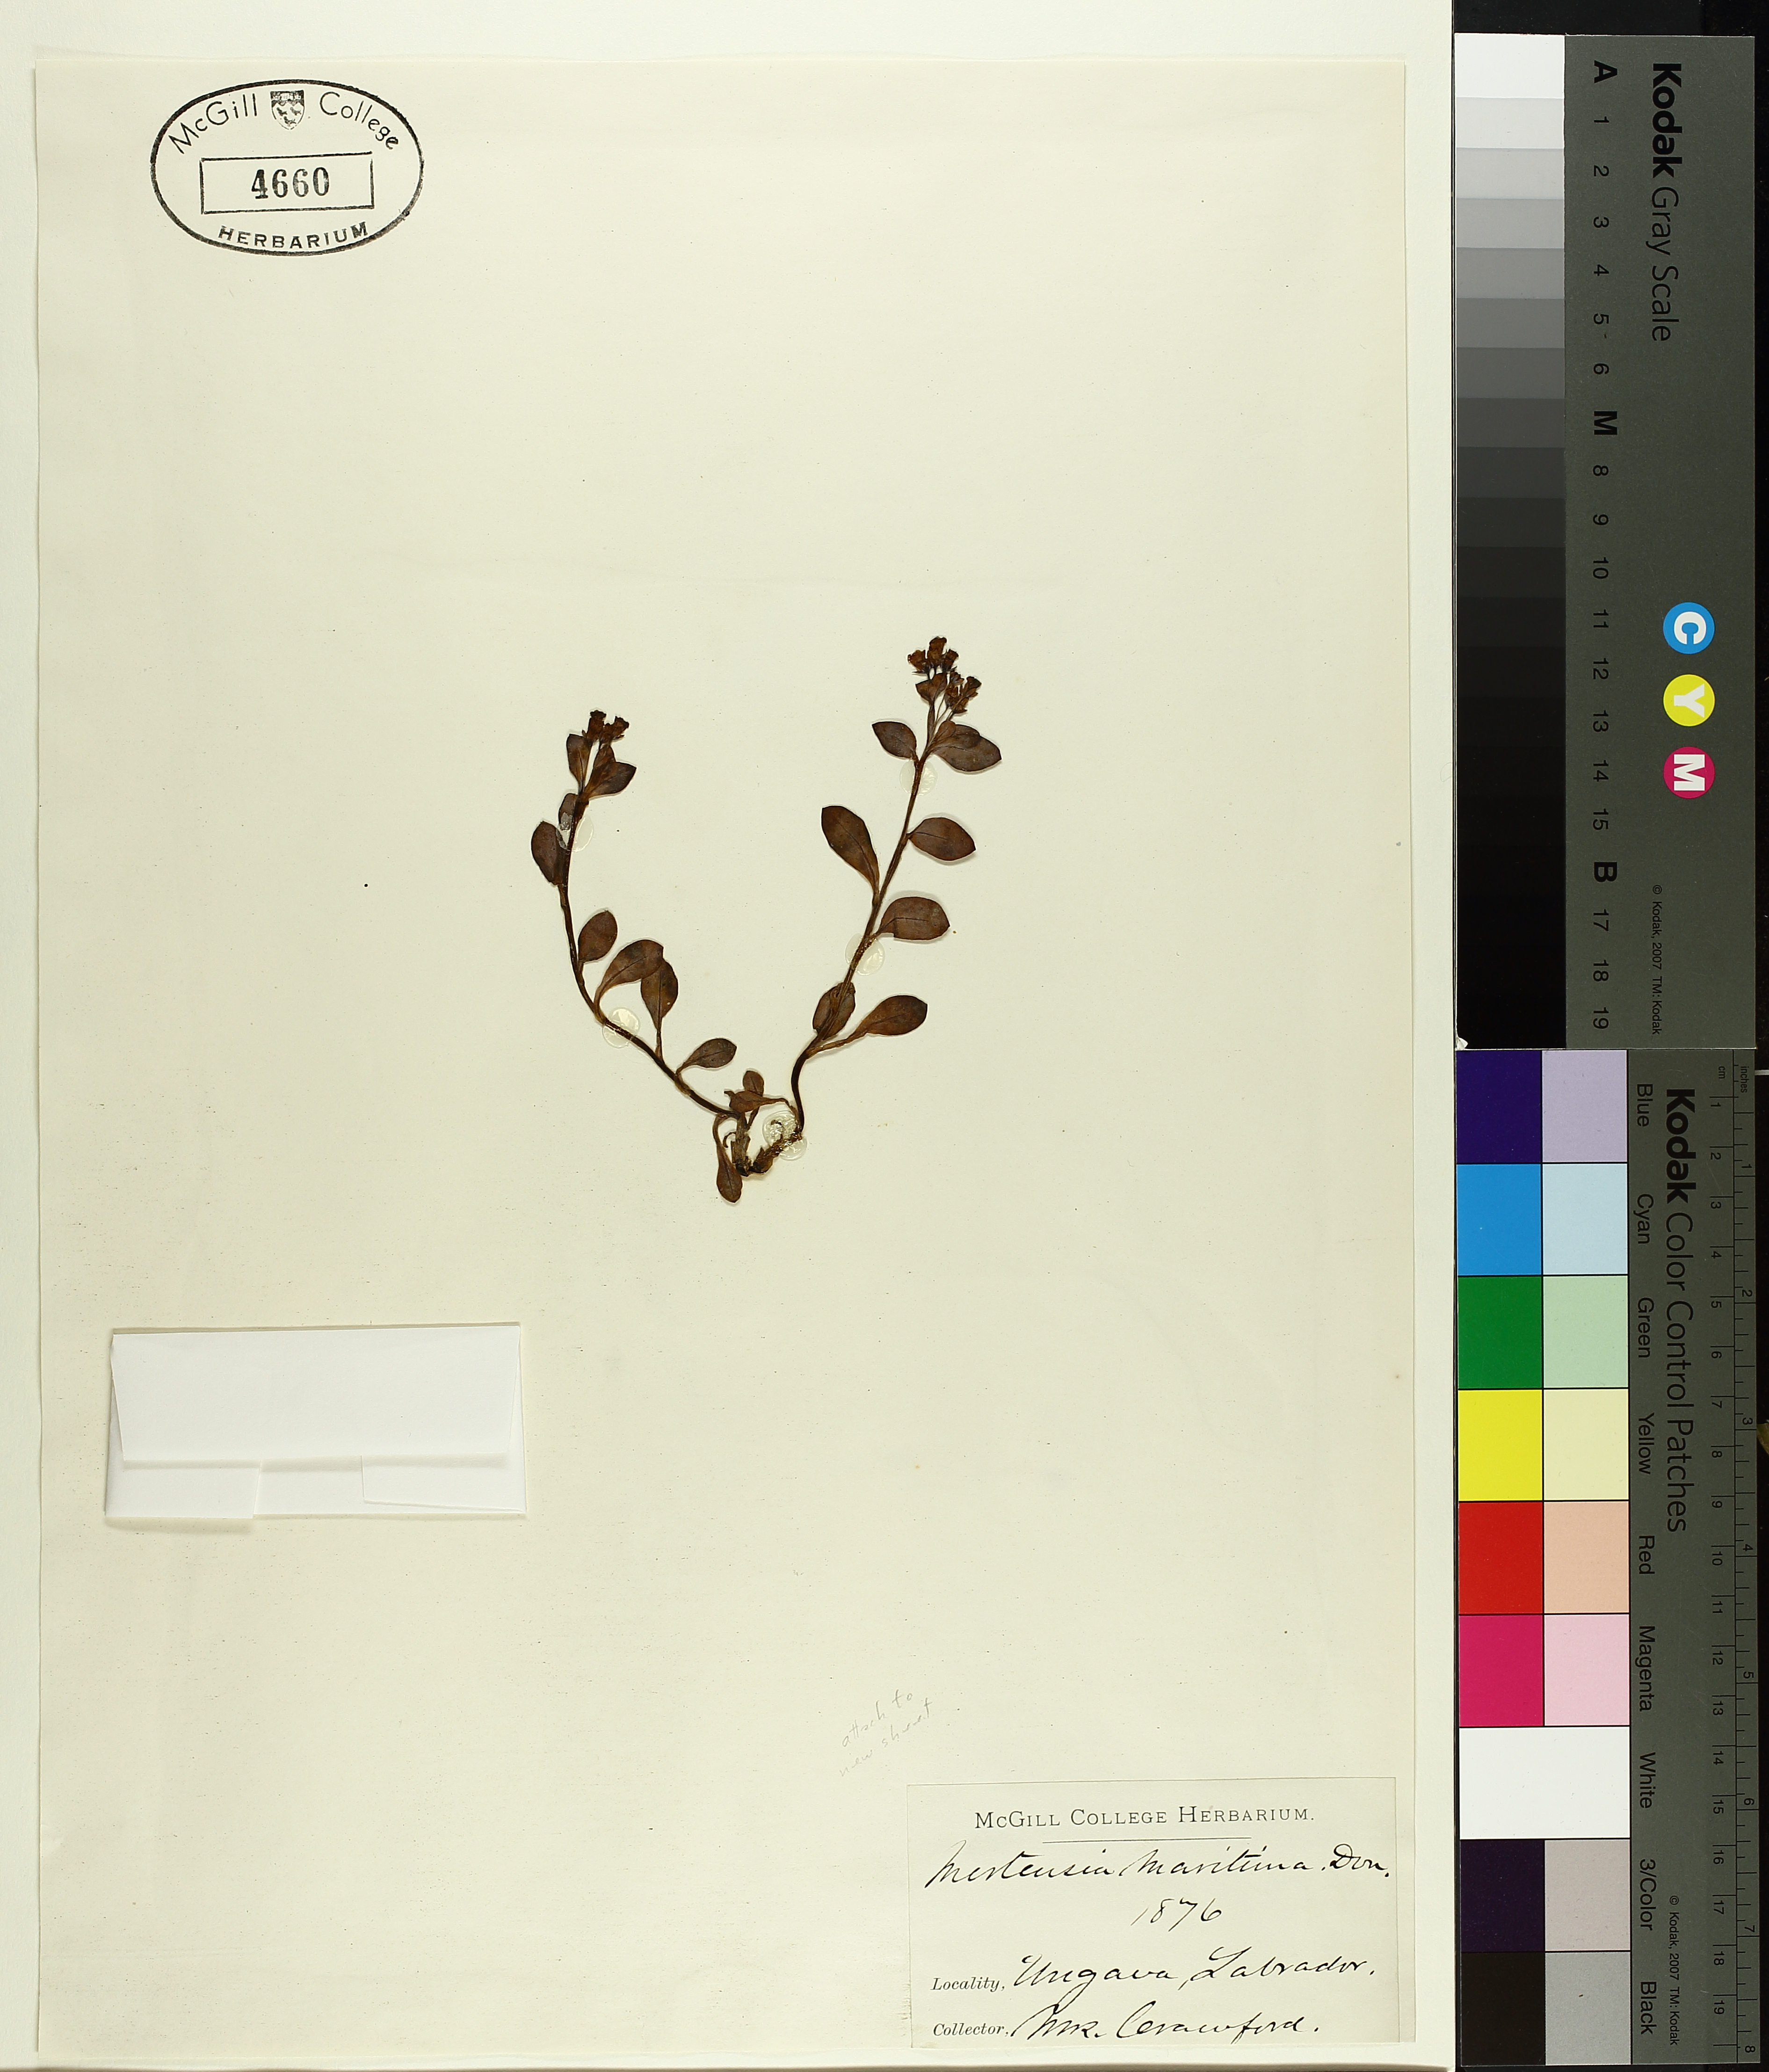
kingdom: Plantae
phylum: Tracheophyta
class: Magnoliopsida
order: Gentianales
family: Gentianaceae
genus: Gentiana
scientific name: Gentiana nivalis
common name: Alpine gentian
